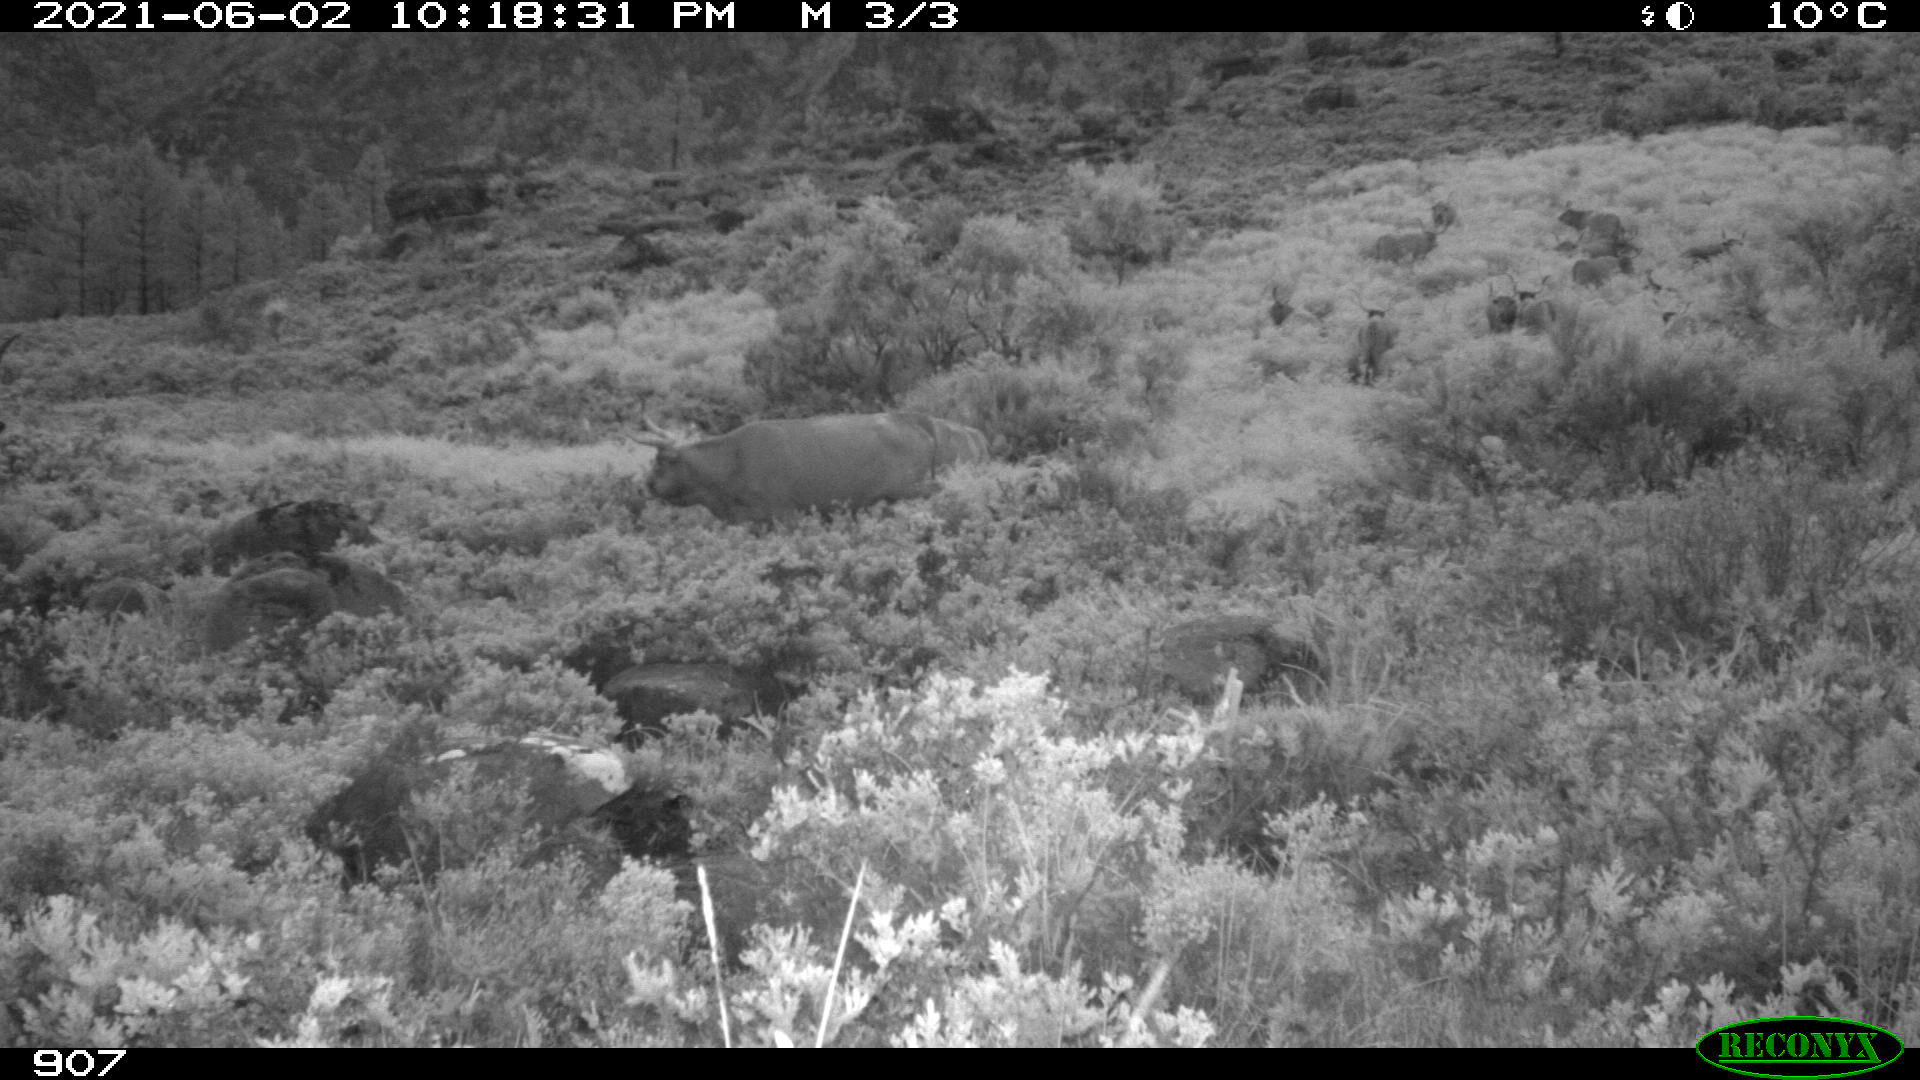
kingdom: Animalia
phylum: Chordata
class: Mammalia
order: Artiodactyla
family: Bovidae
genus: Bos
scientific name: Bos taurus
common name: Domesticated cattle
